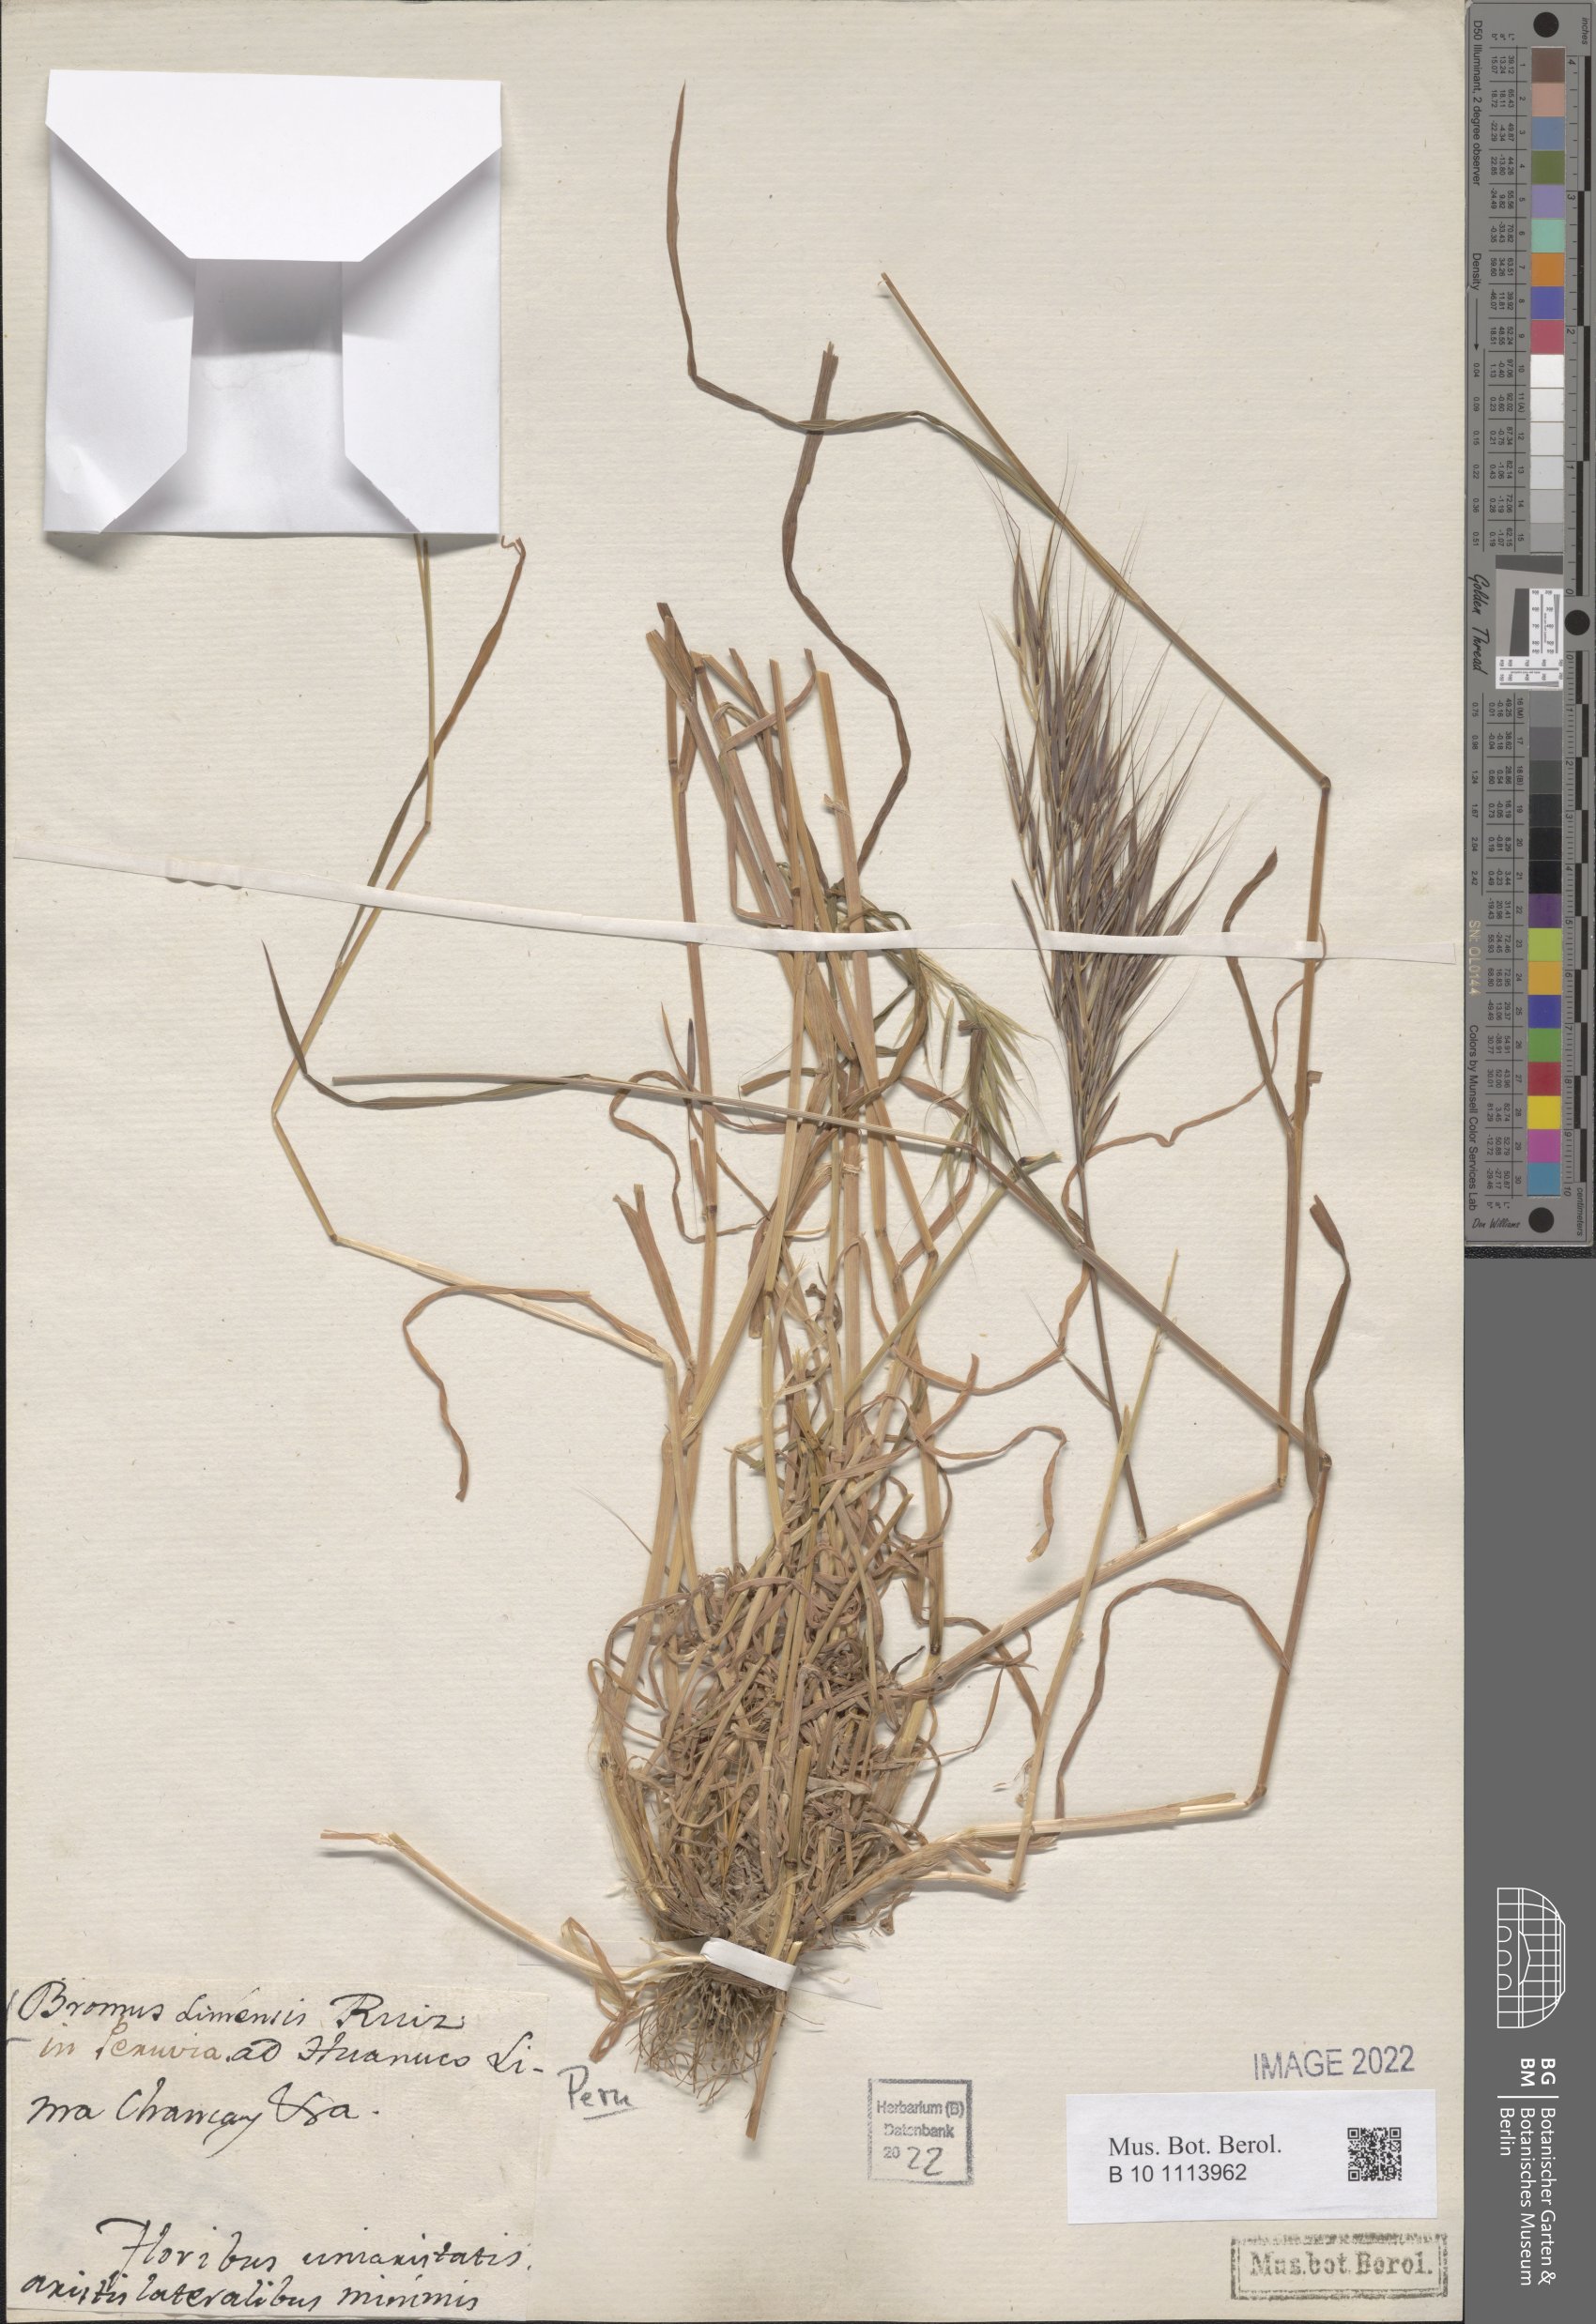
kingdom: Plantae
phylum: Tracheophyta
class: Liliopsida
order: Poales
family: Poaceae
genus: Bromus
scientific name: Bromus
